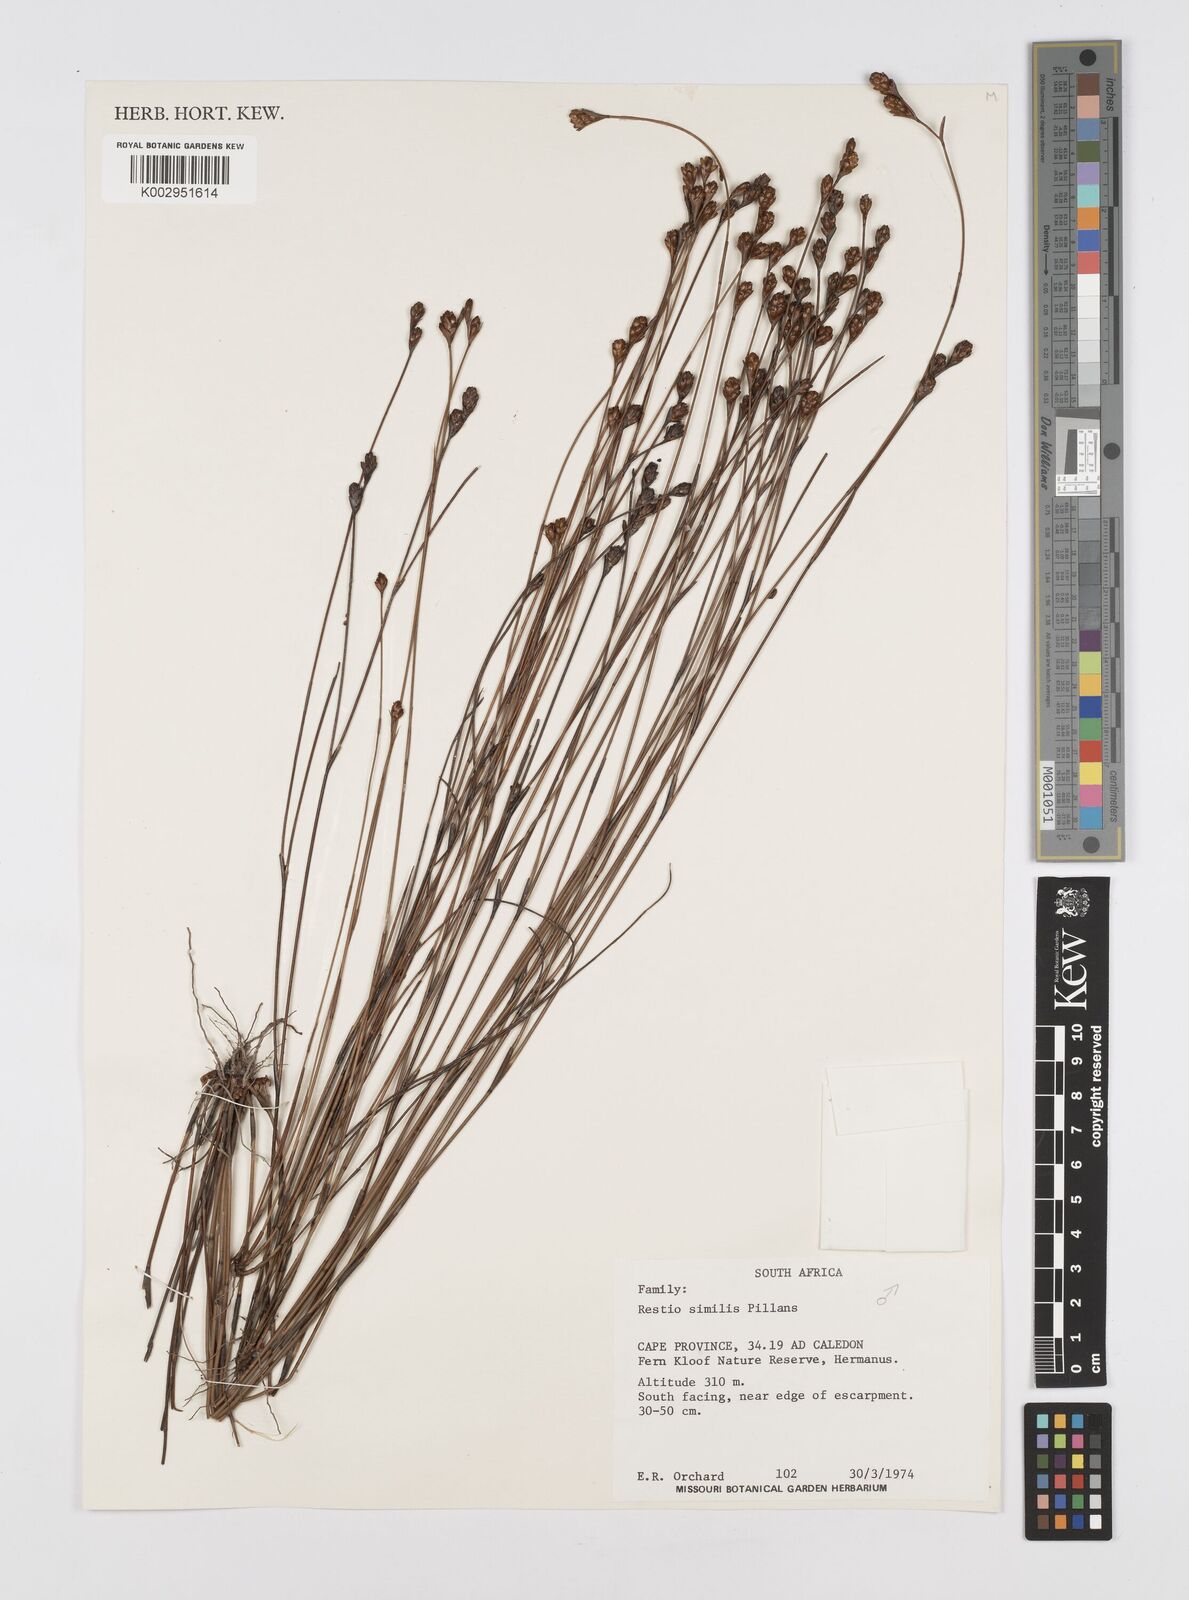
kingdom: Plantae
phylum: Tracheophyta
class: Liliopsida
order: Poales
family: Restionaceae
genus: Restio
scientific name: Restio similis
